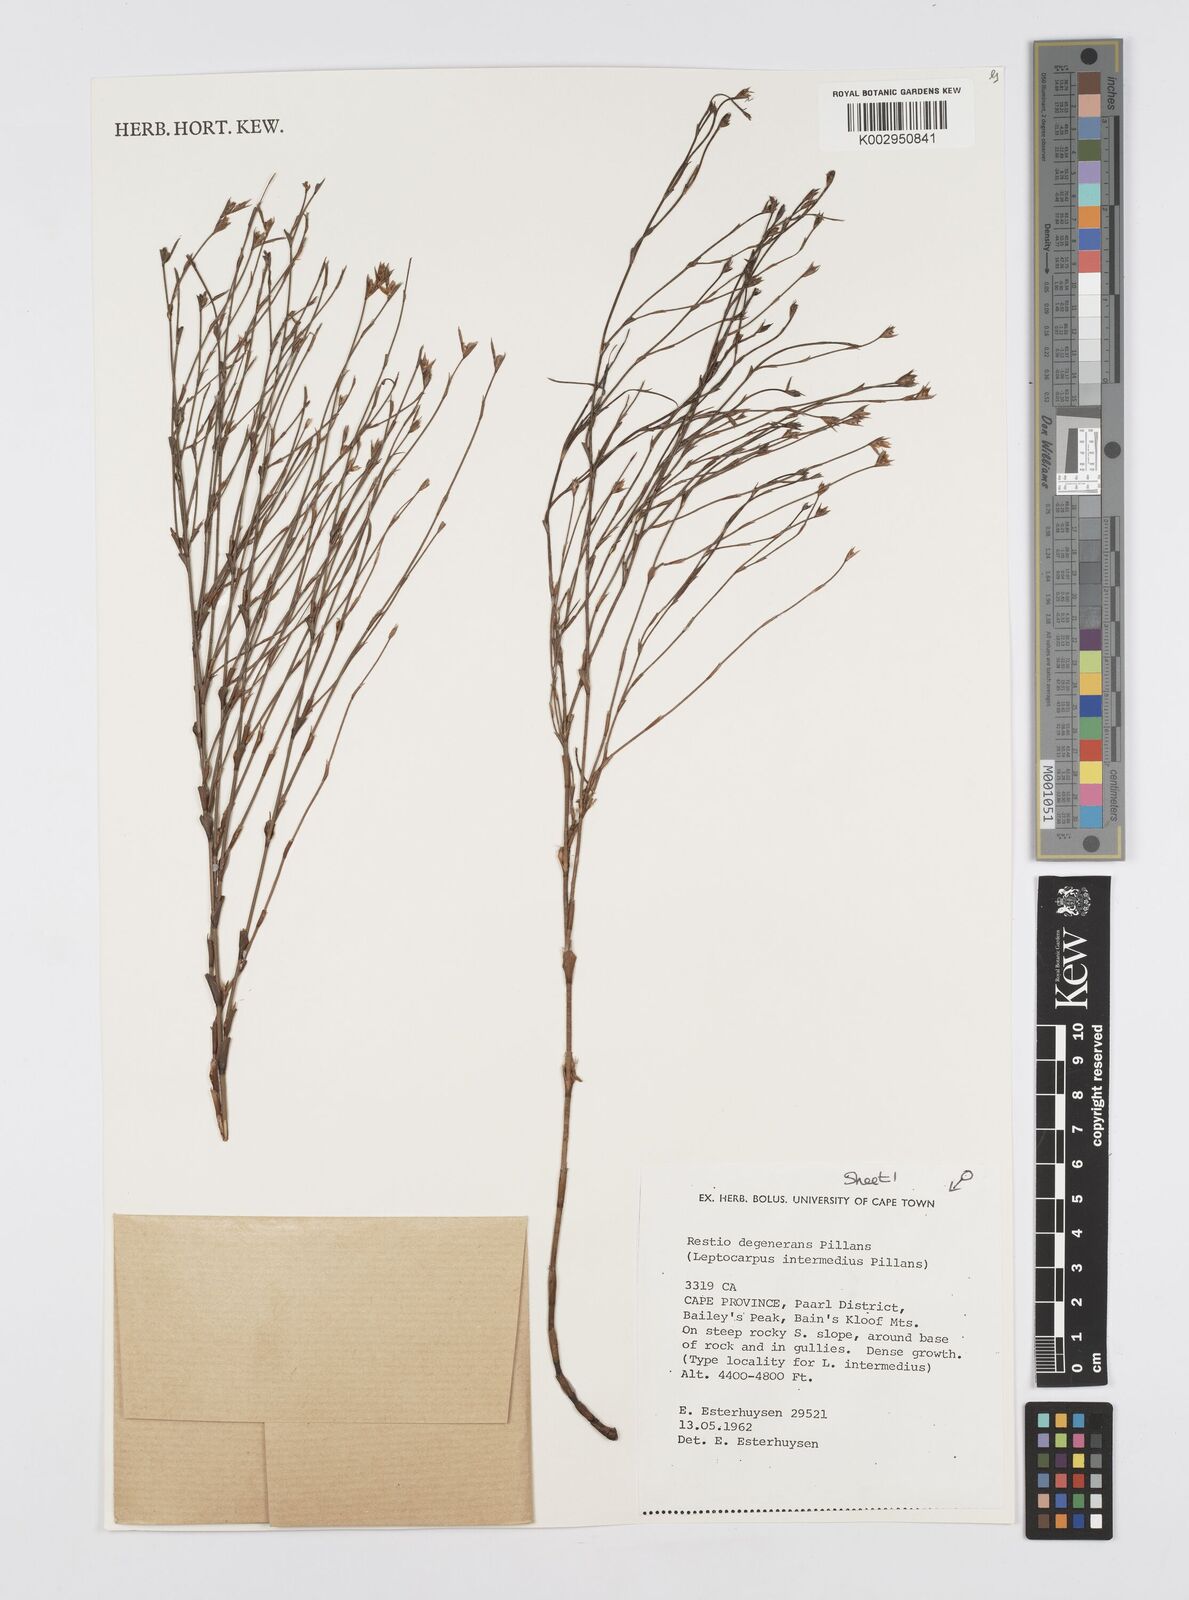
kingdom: Plantae
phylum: Tracheophyta
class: Liliopsida
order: Poales
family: Restionaceae
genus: Restio
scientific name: Restio degenerans
